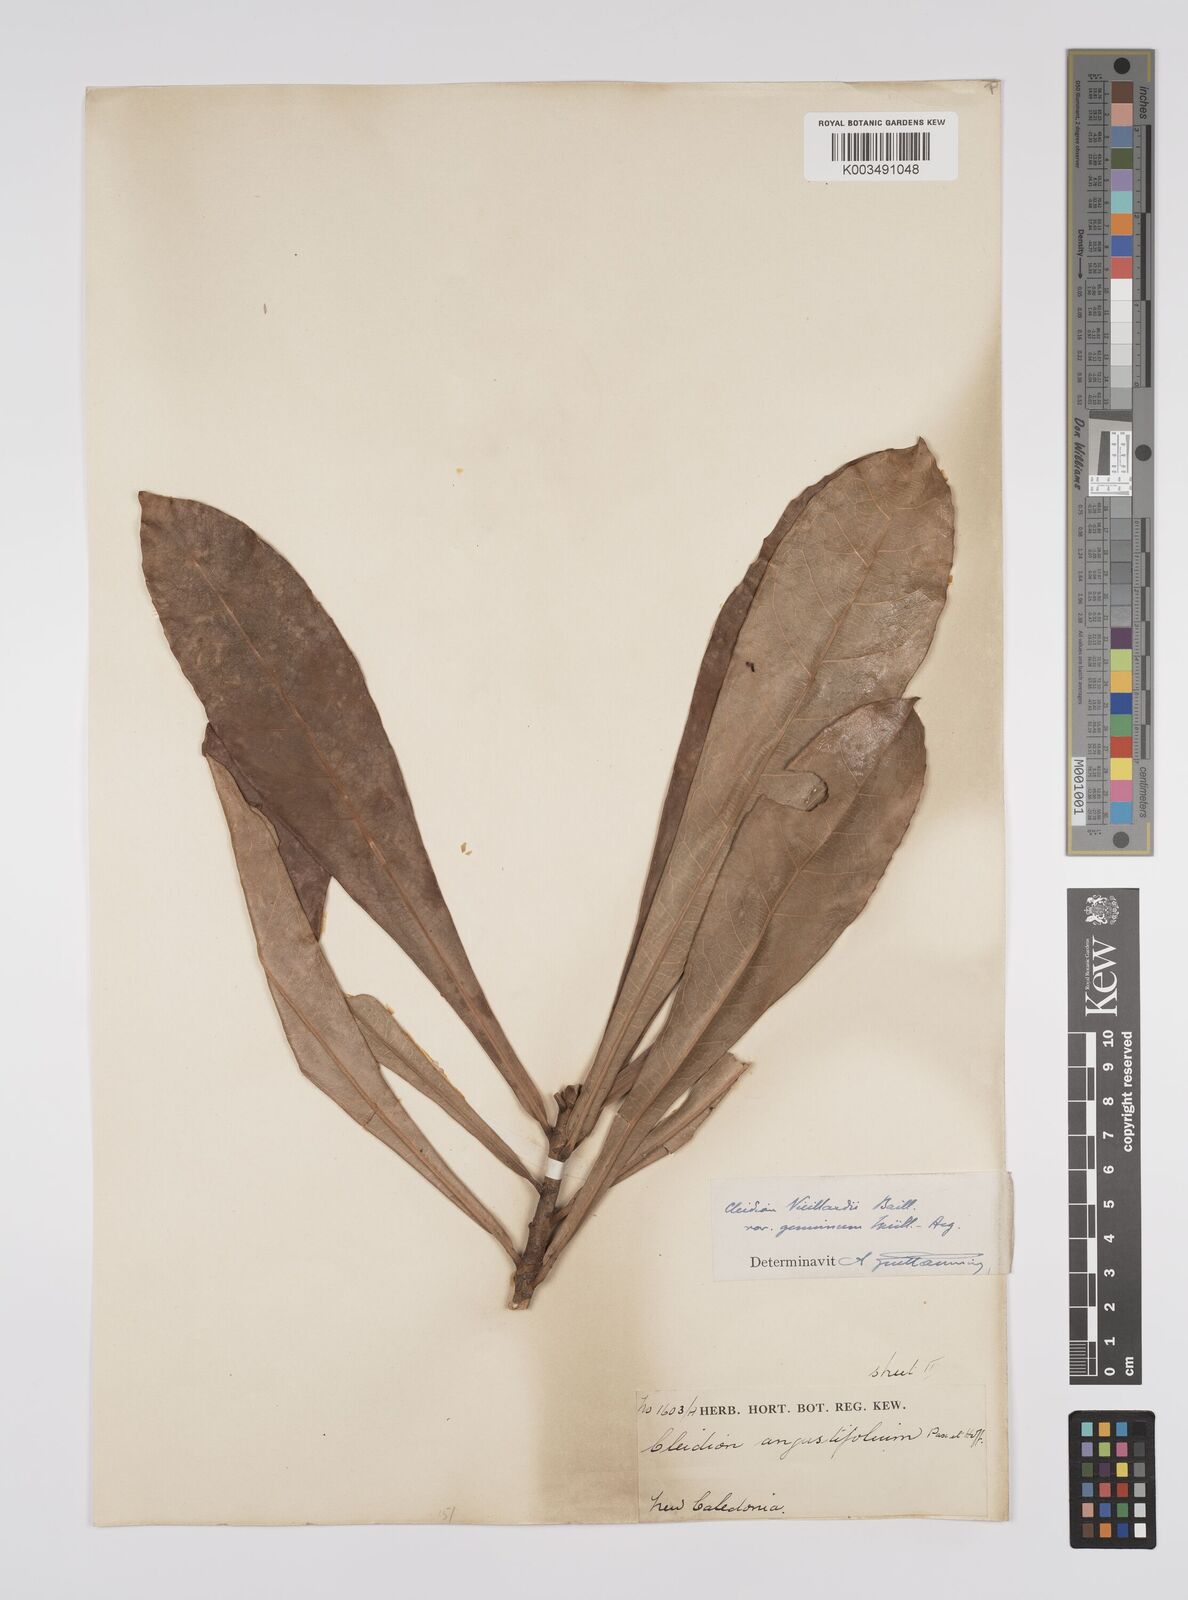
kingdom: Plantae
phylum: Tracheophyta
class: Magnoliopsida
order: Malpighiales
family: Euphorbiaceae
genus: Cleidion
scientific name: Cleidion vieillardii
